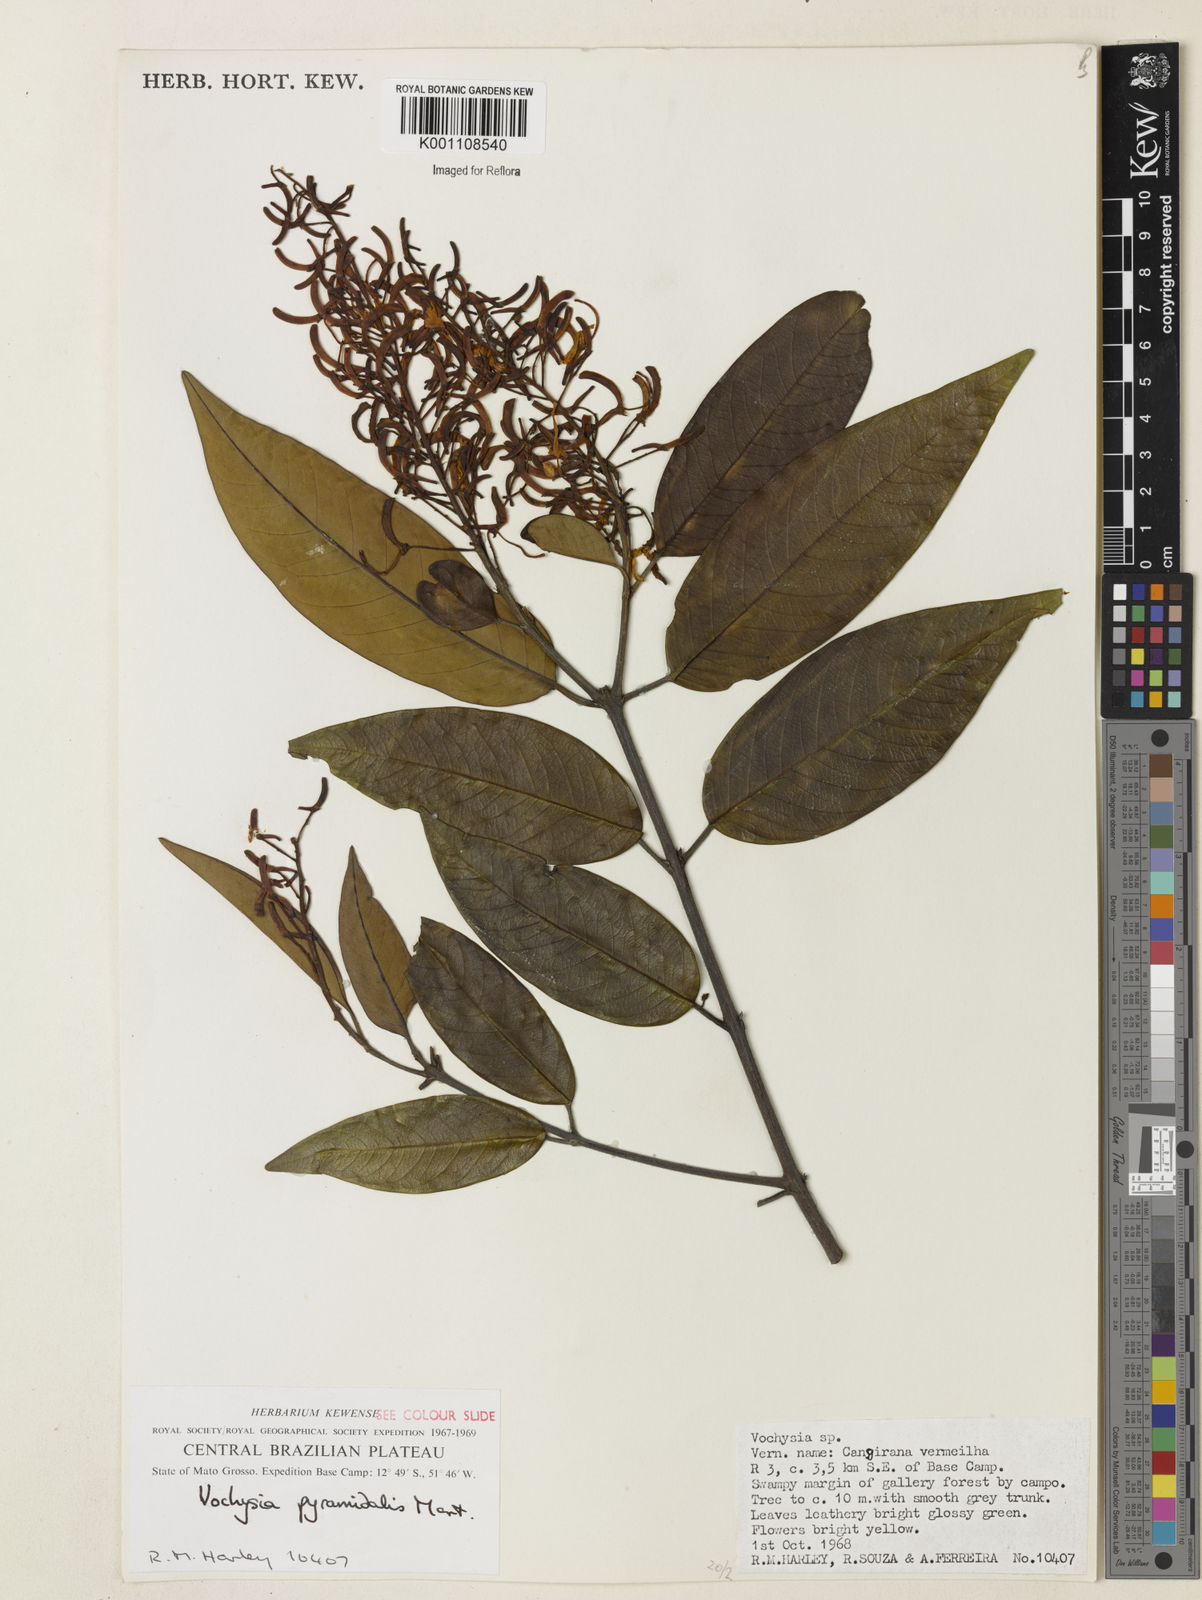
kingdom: Plantae
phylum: Tracheophyta
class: Magnoliopsida
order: Myrtales
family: Vochysiaceae
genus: Vochysia
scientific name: Vochysia pyramidalis
